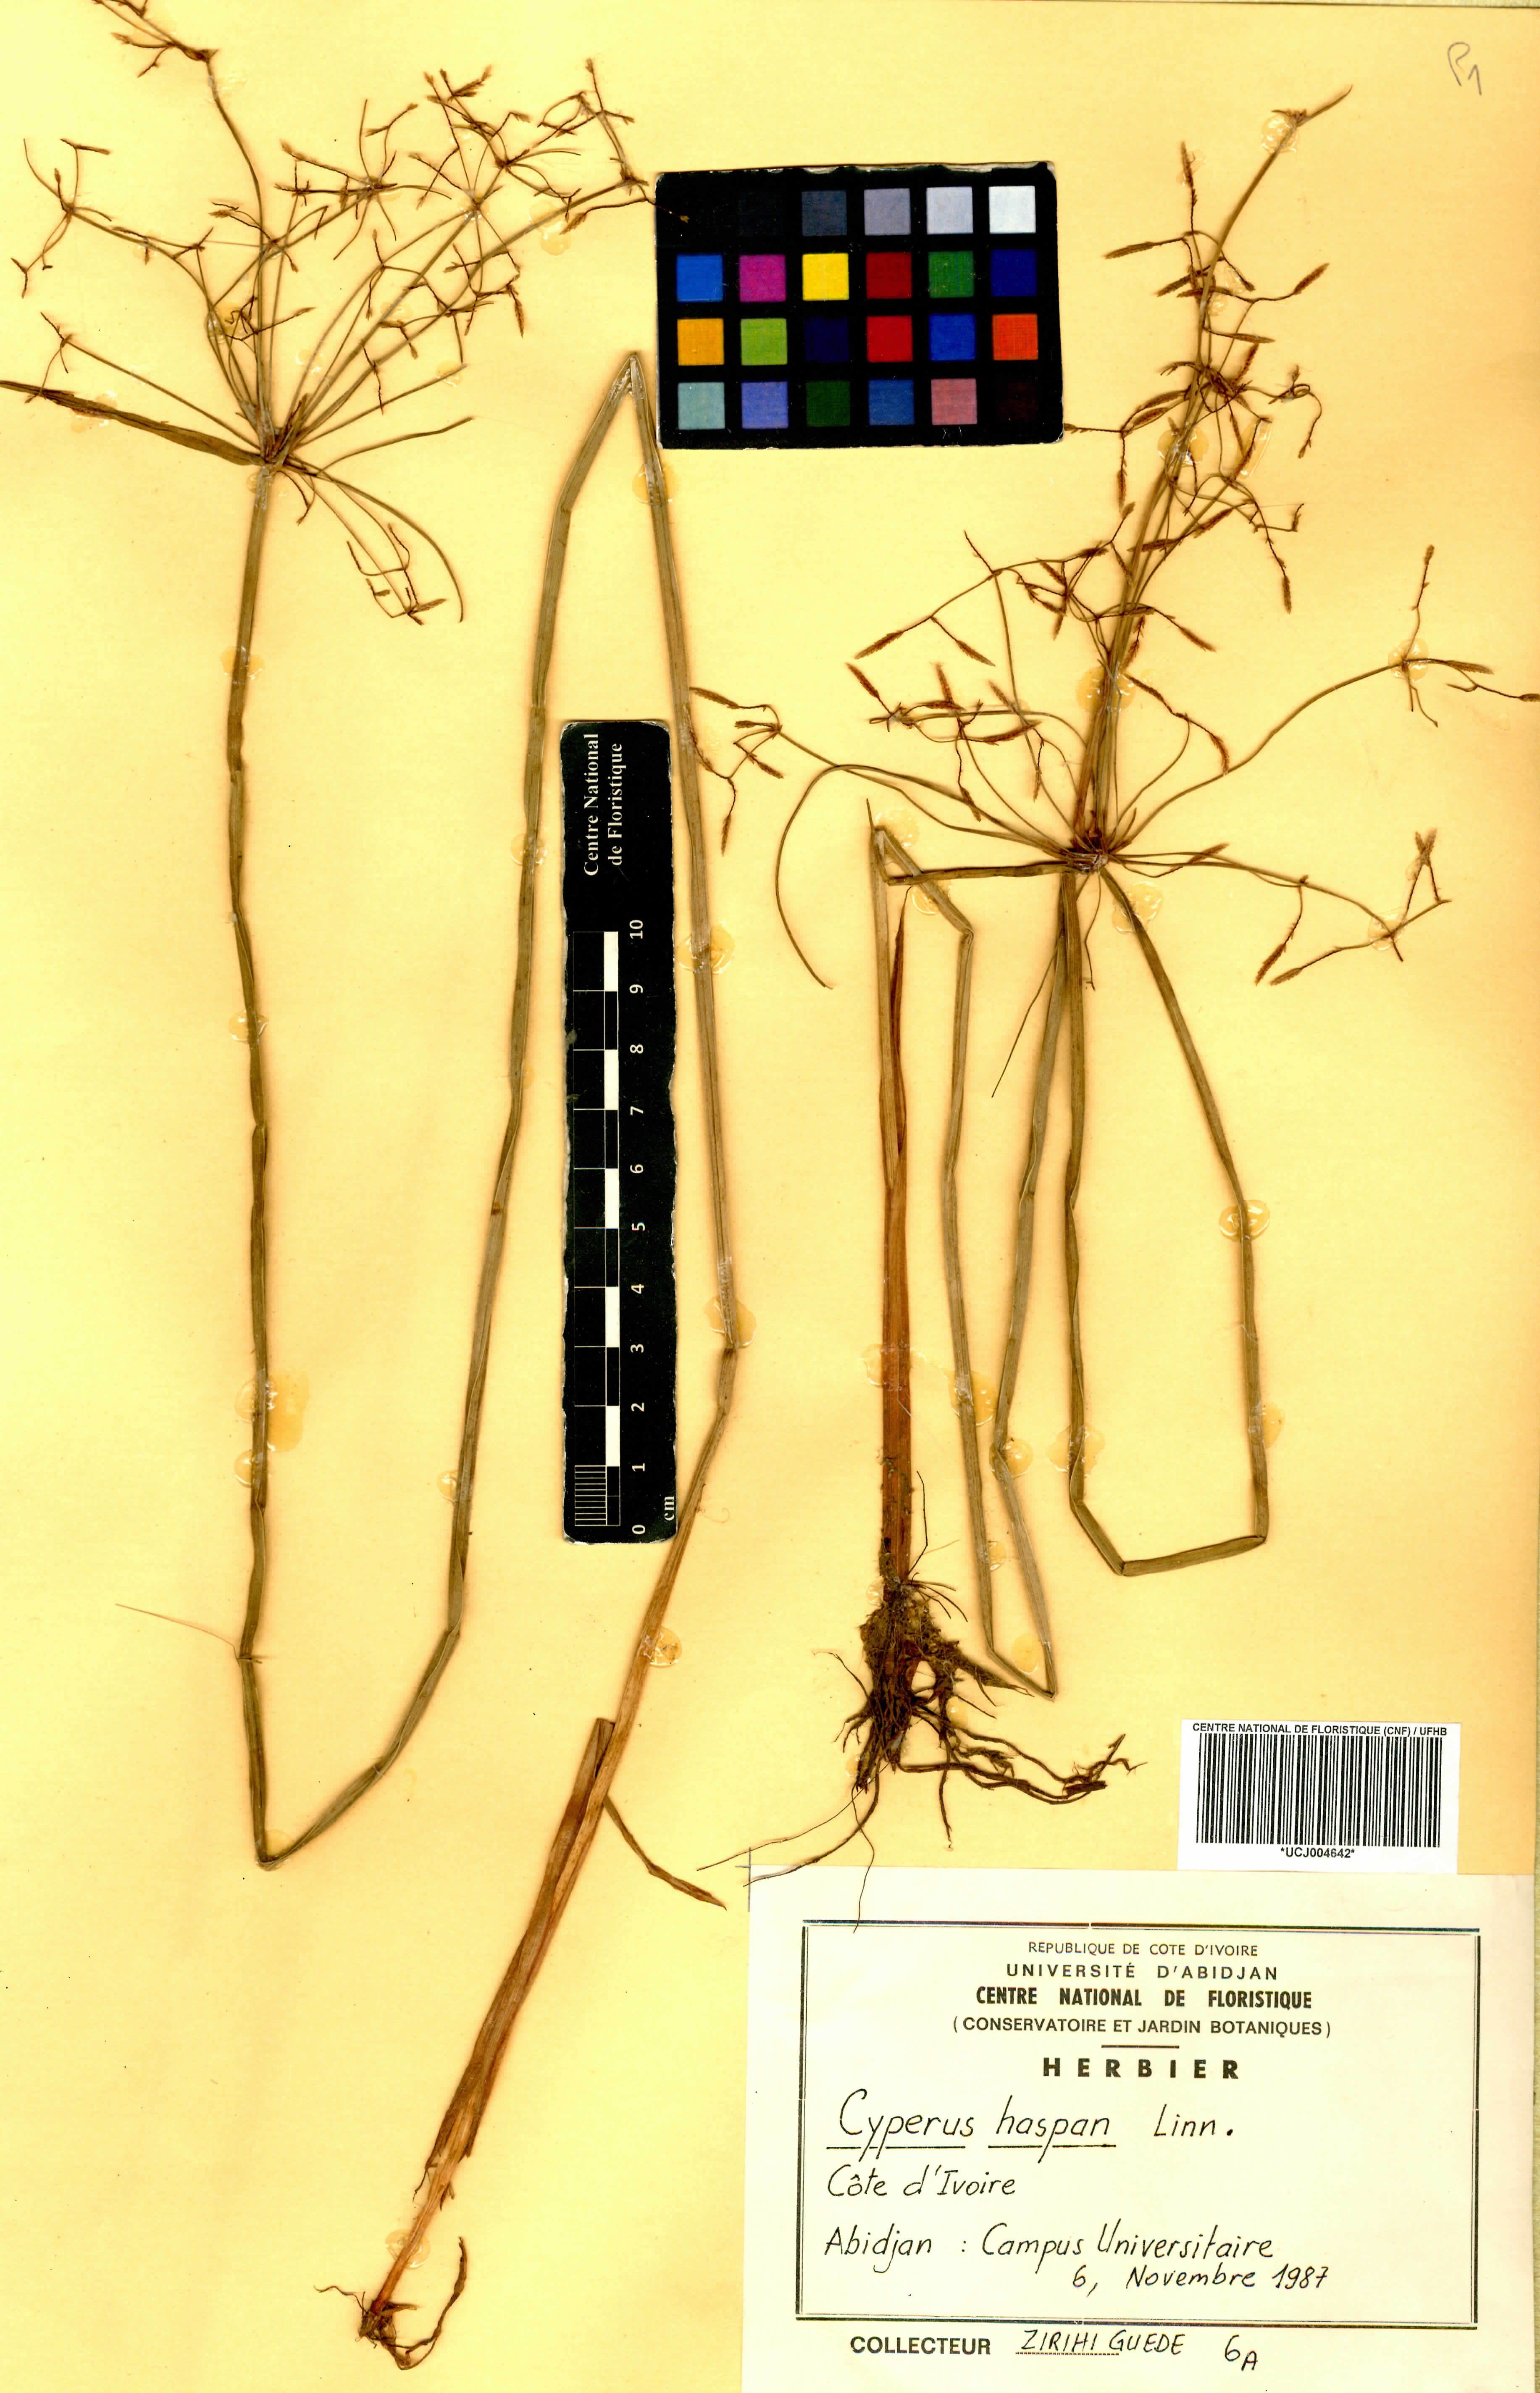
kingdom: Plantae
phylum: Tracheophyta
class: Liliopsida
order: Poales
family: Cyperaceae
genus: Cyperus
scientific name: Cyperus haspan
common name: Haspan flatsedge
